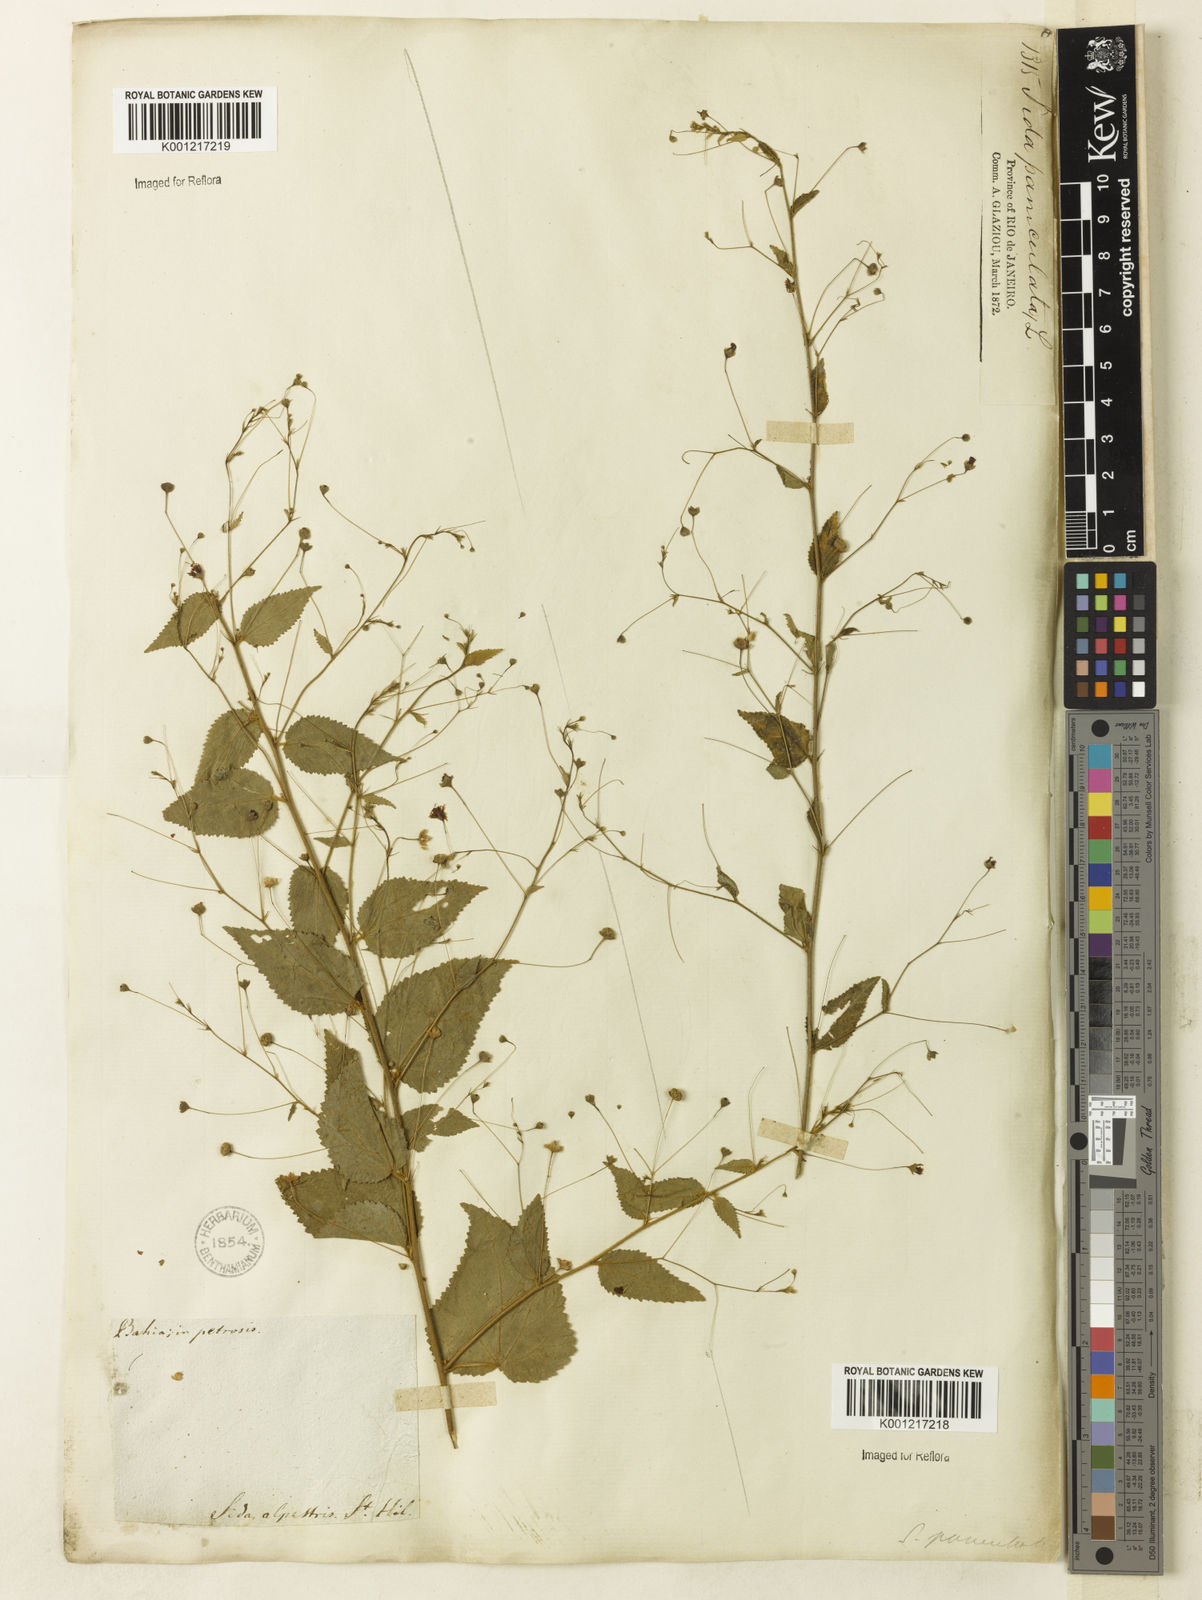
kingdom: Plantae
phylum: Tracheophyta
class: Magnoliopsida
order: Malvales
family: Malvaceae
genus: Sidastrum
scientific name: Sidastrum paniculatum
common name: Panicled sandmallow
